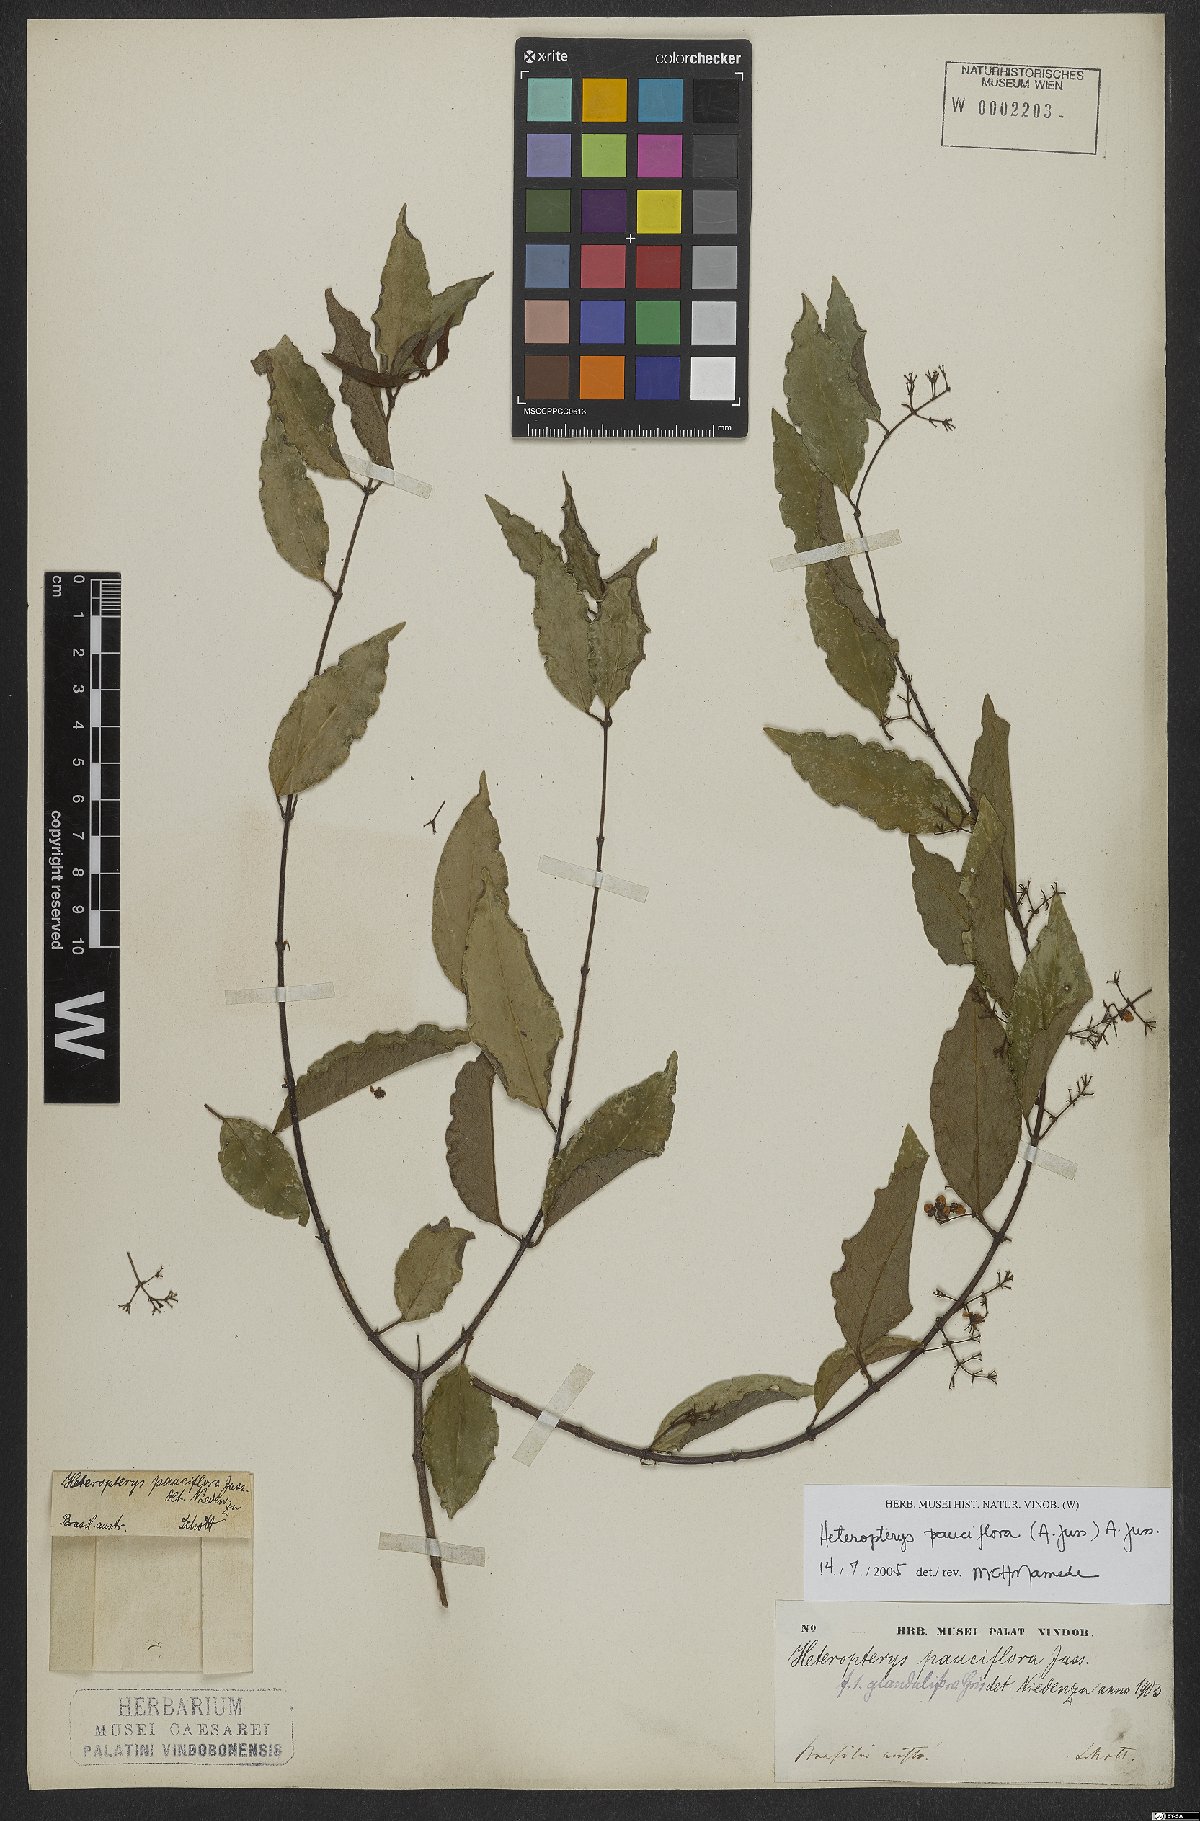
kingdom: Plantae
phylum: Tracheophyta
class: Magnoliopsida
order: Malpighiales
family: Malpighiaceae
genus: Heteropterys
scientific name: Heteropterys pauciflora
